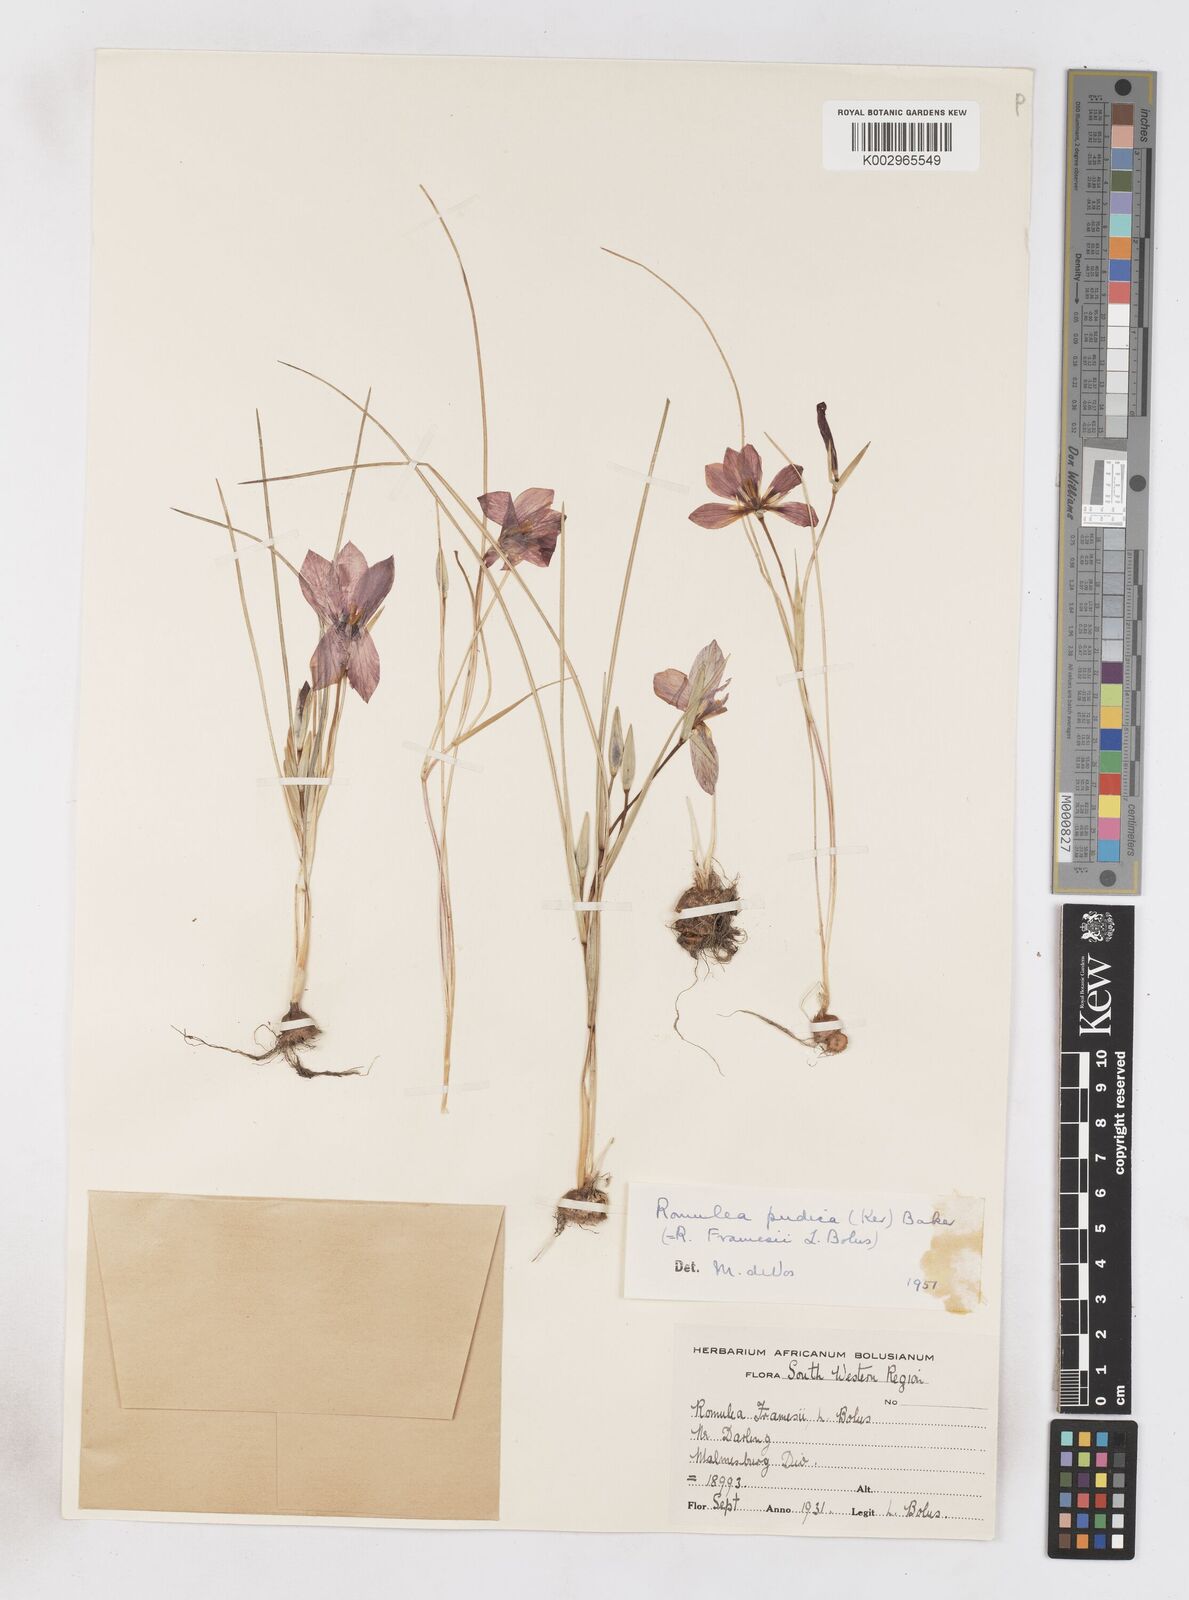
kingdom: Plantae
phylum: Tracheophyta
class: Liliopsida
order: Asparagales
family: Iridaceae
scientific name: Iridaceae
